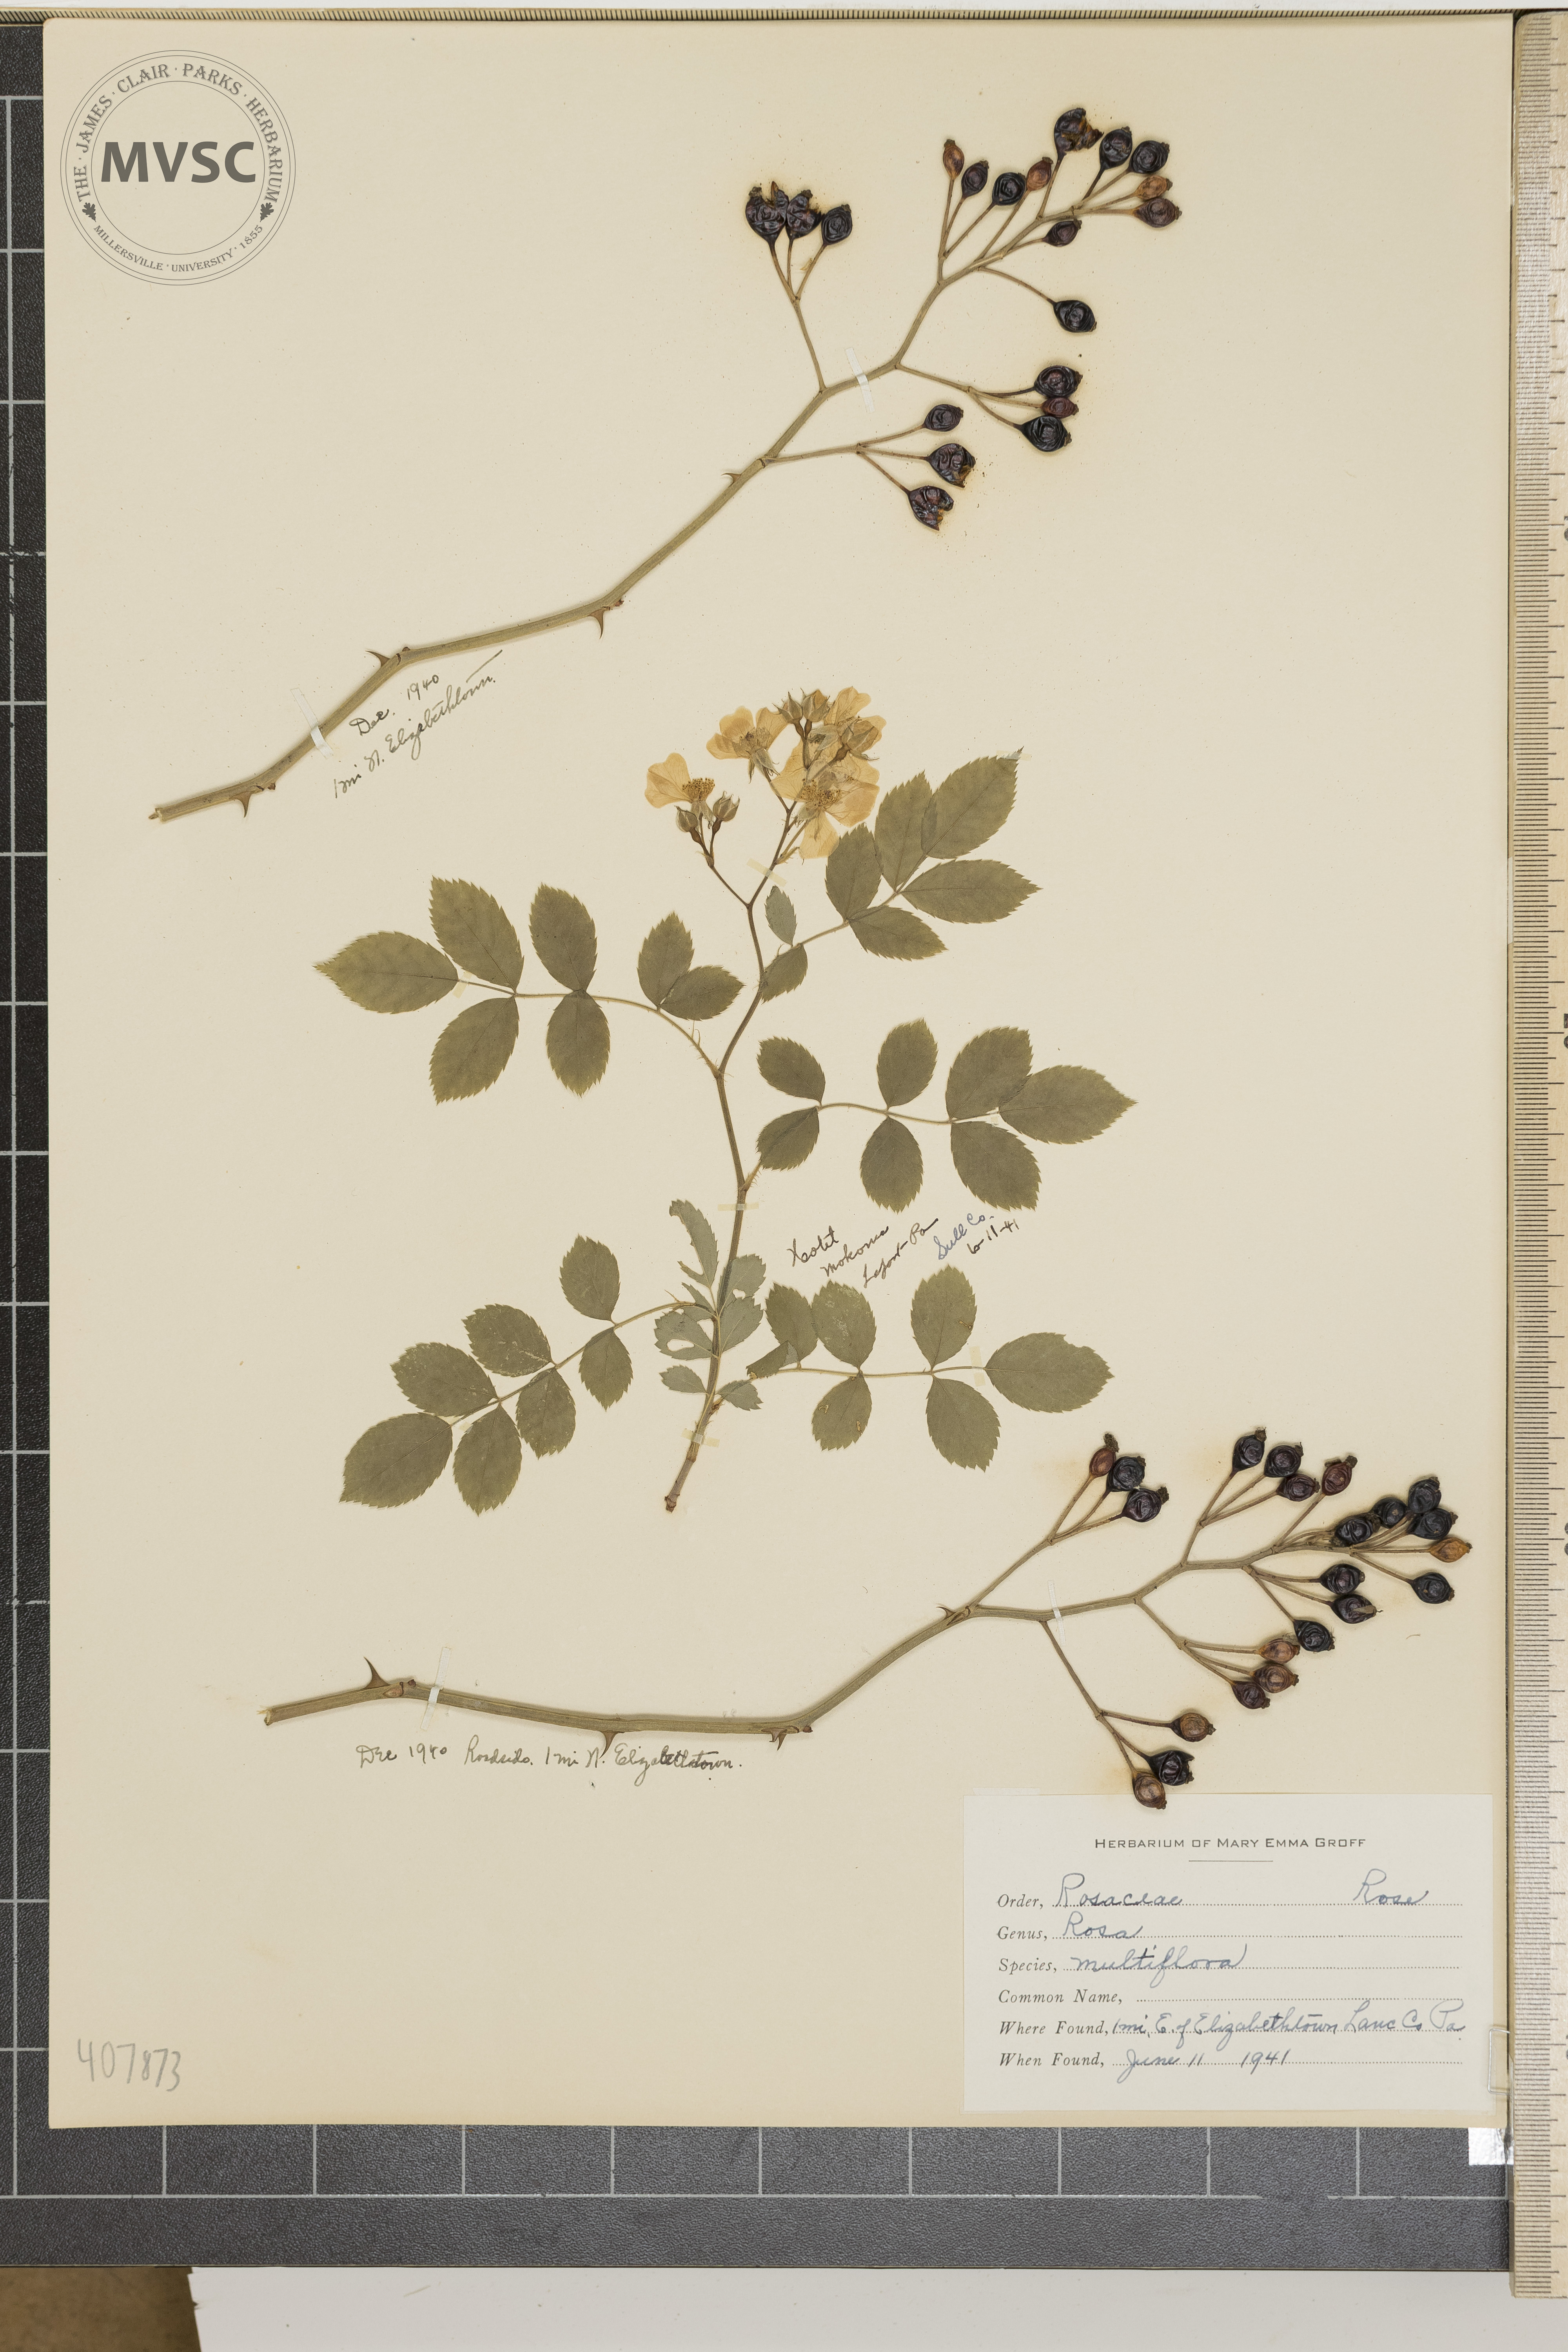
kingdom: Plantae
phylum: Tracheophyta
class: Magnoliopsida
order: Rosales
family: Rosaceae
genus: Rosa
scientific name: Rosa multiflora
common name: multiflora rose
